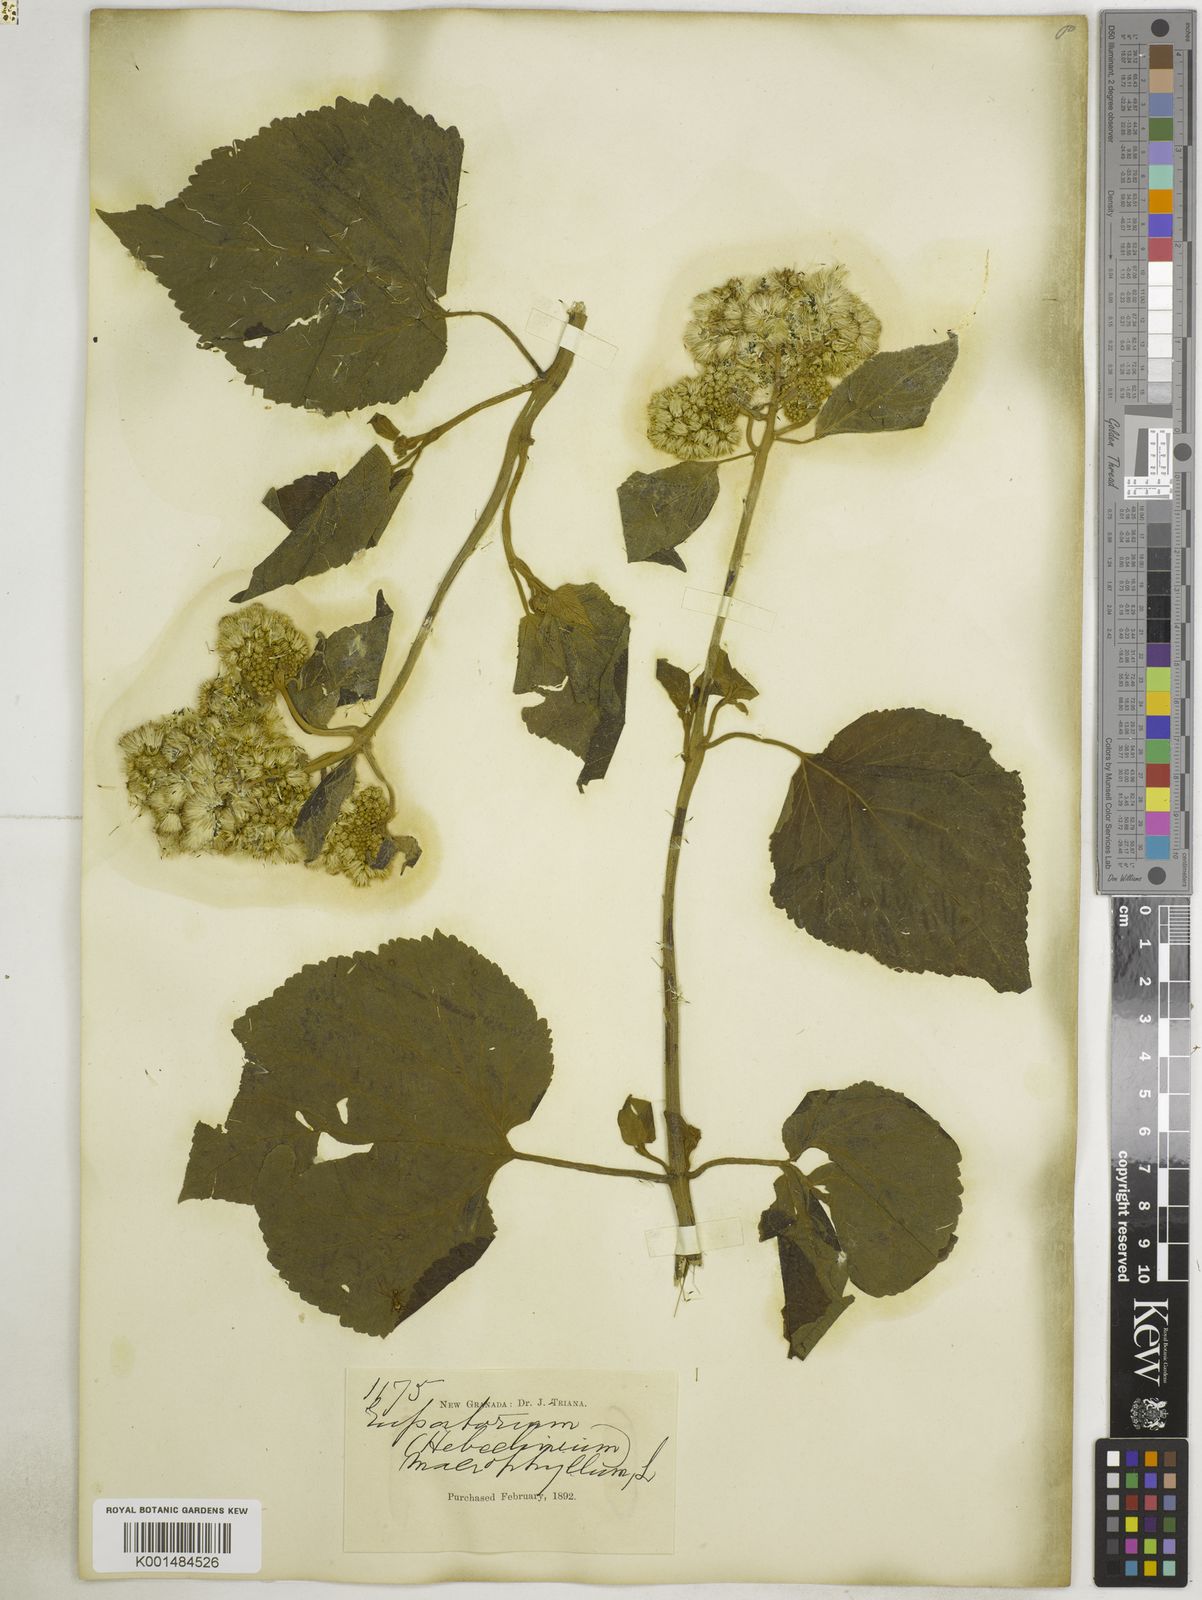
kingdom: Plantae
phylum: Tracheophyta
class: Magnoliopsida
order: Asterales
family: Asteraceae
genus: Hebeclinium
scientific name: Hebeclinium macrophyllum
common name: Largeleaf thoroughwort
